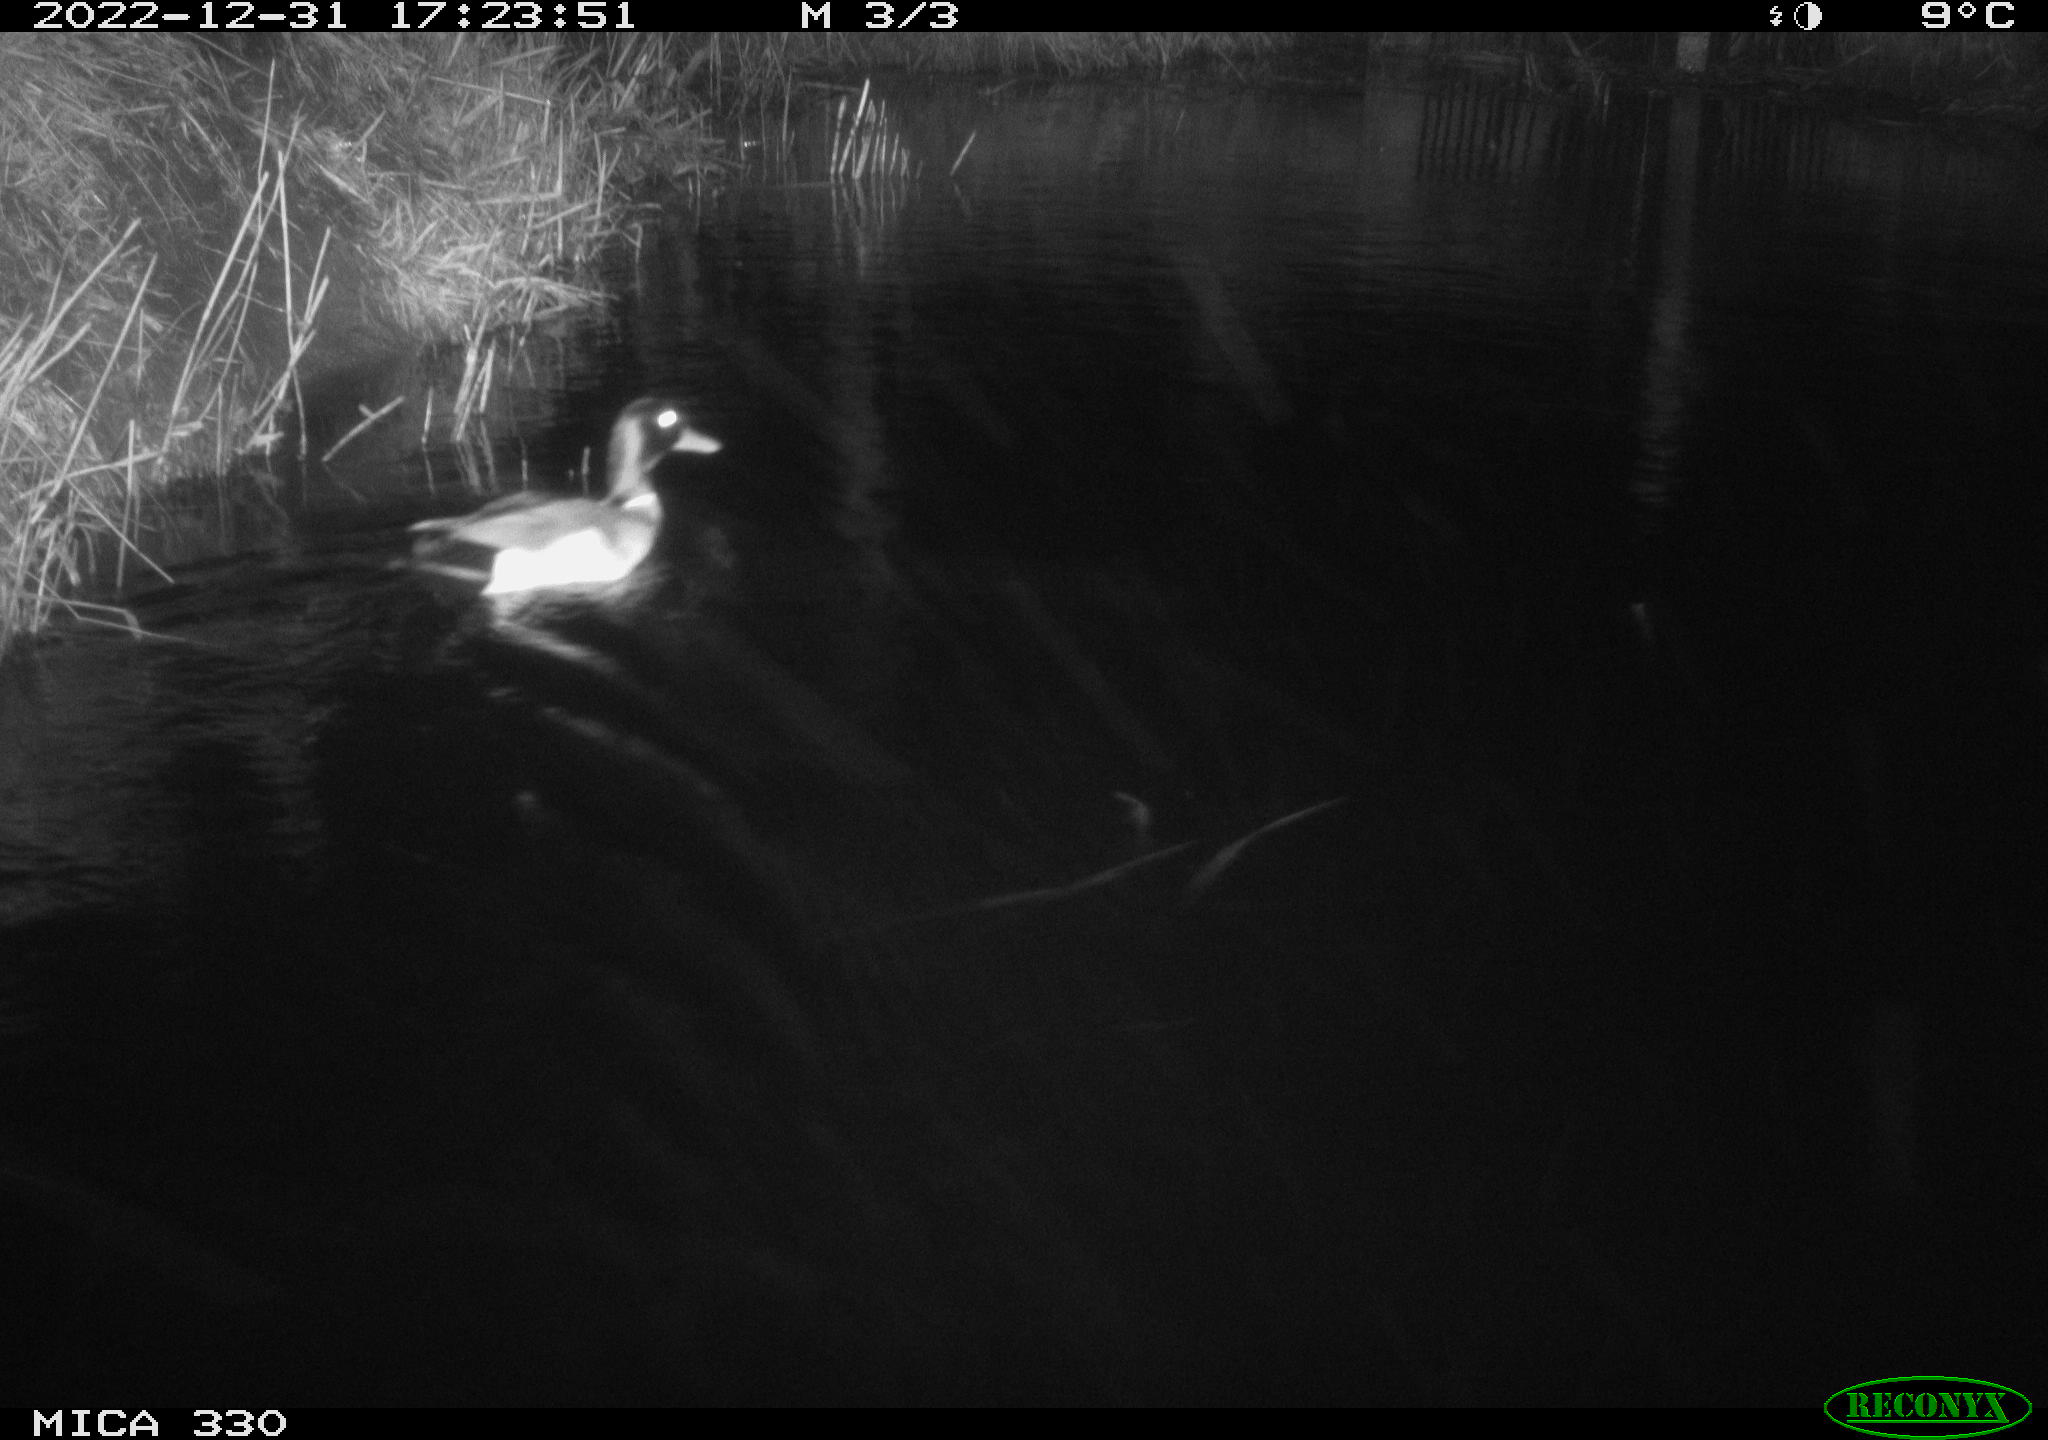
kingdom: Animalia
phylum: Chordata
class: Aves
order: Anseriformes
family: Anatidae
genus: Anas
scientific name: Anas
